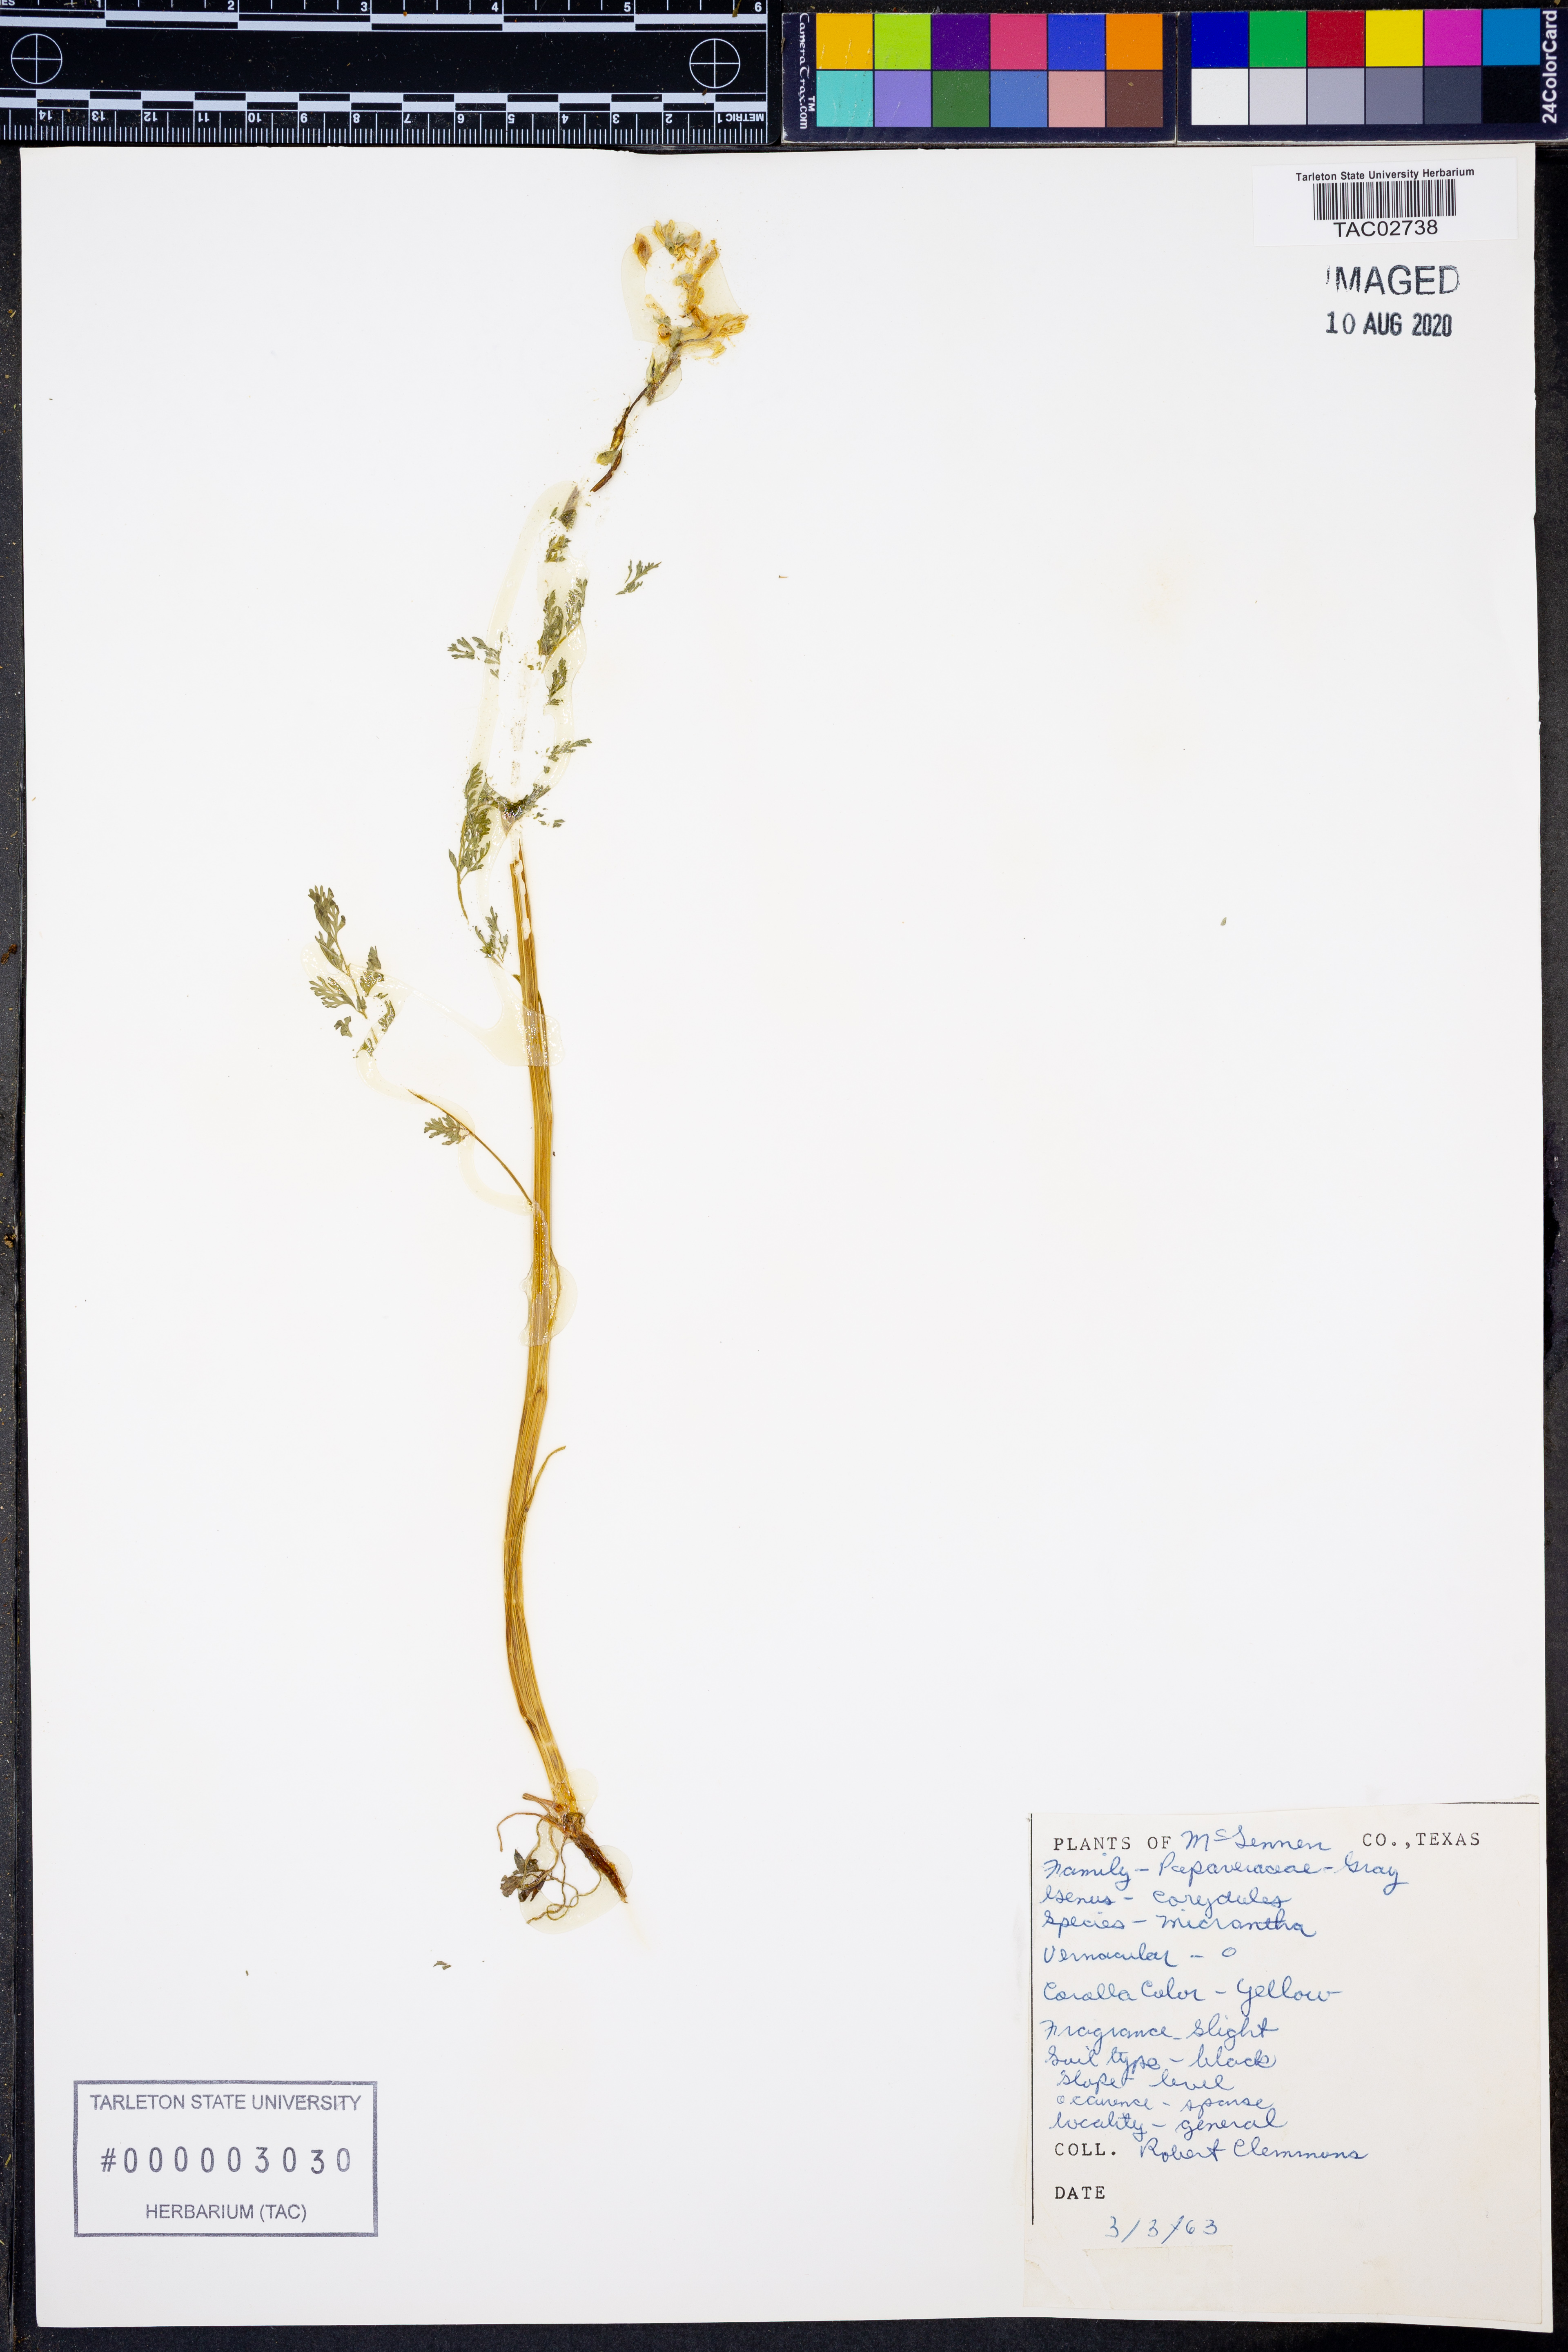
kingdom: Plantae
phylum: Tracheophyta
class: Magnoliopsida
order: Ranunculales
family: Papaveraceae
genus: Corydalis
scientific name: Corydalis micrantha
